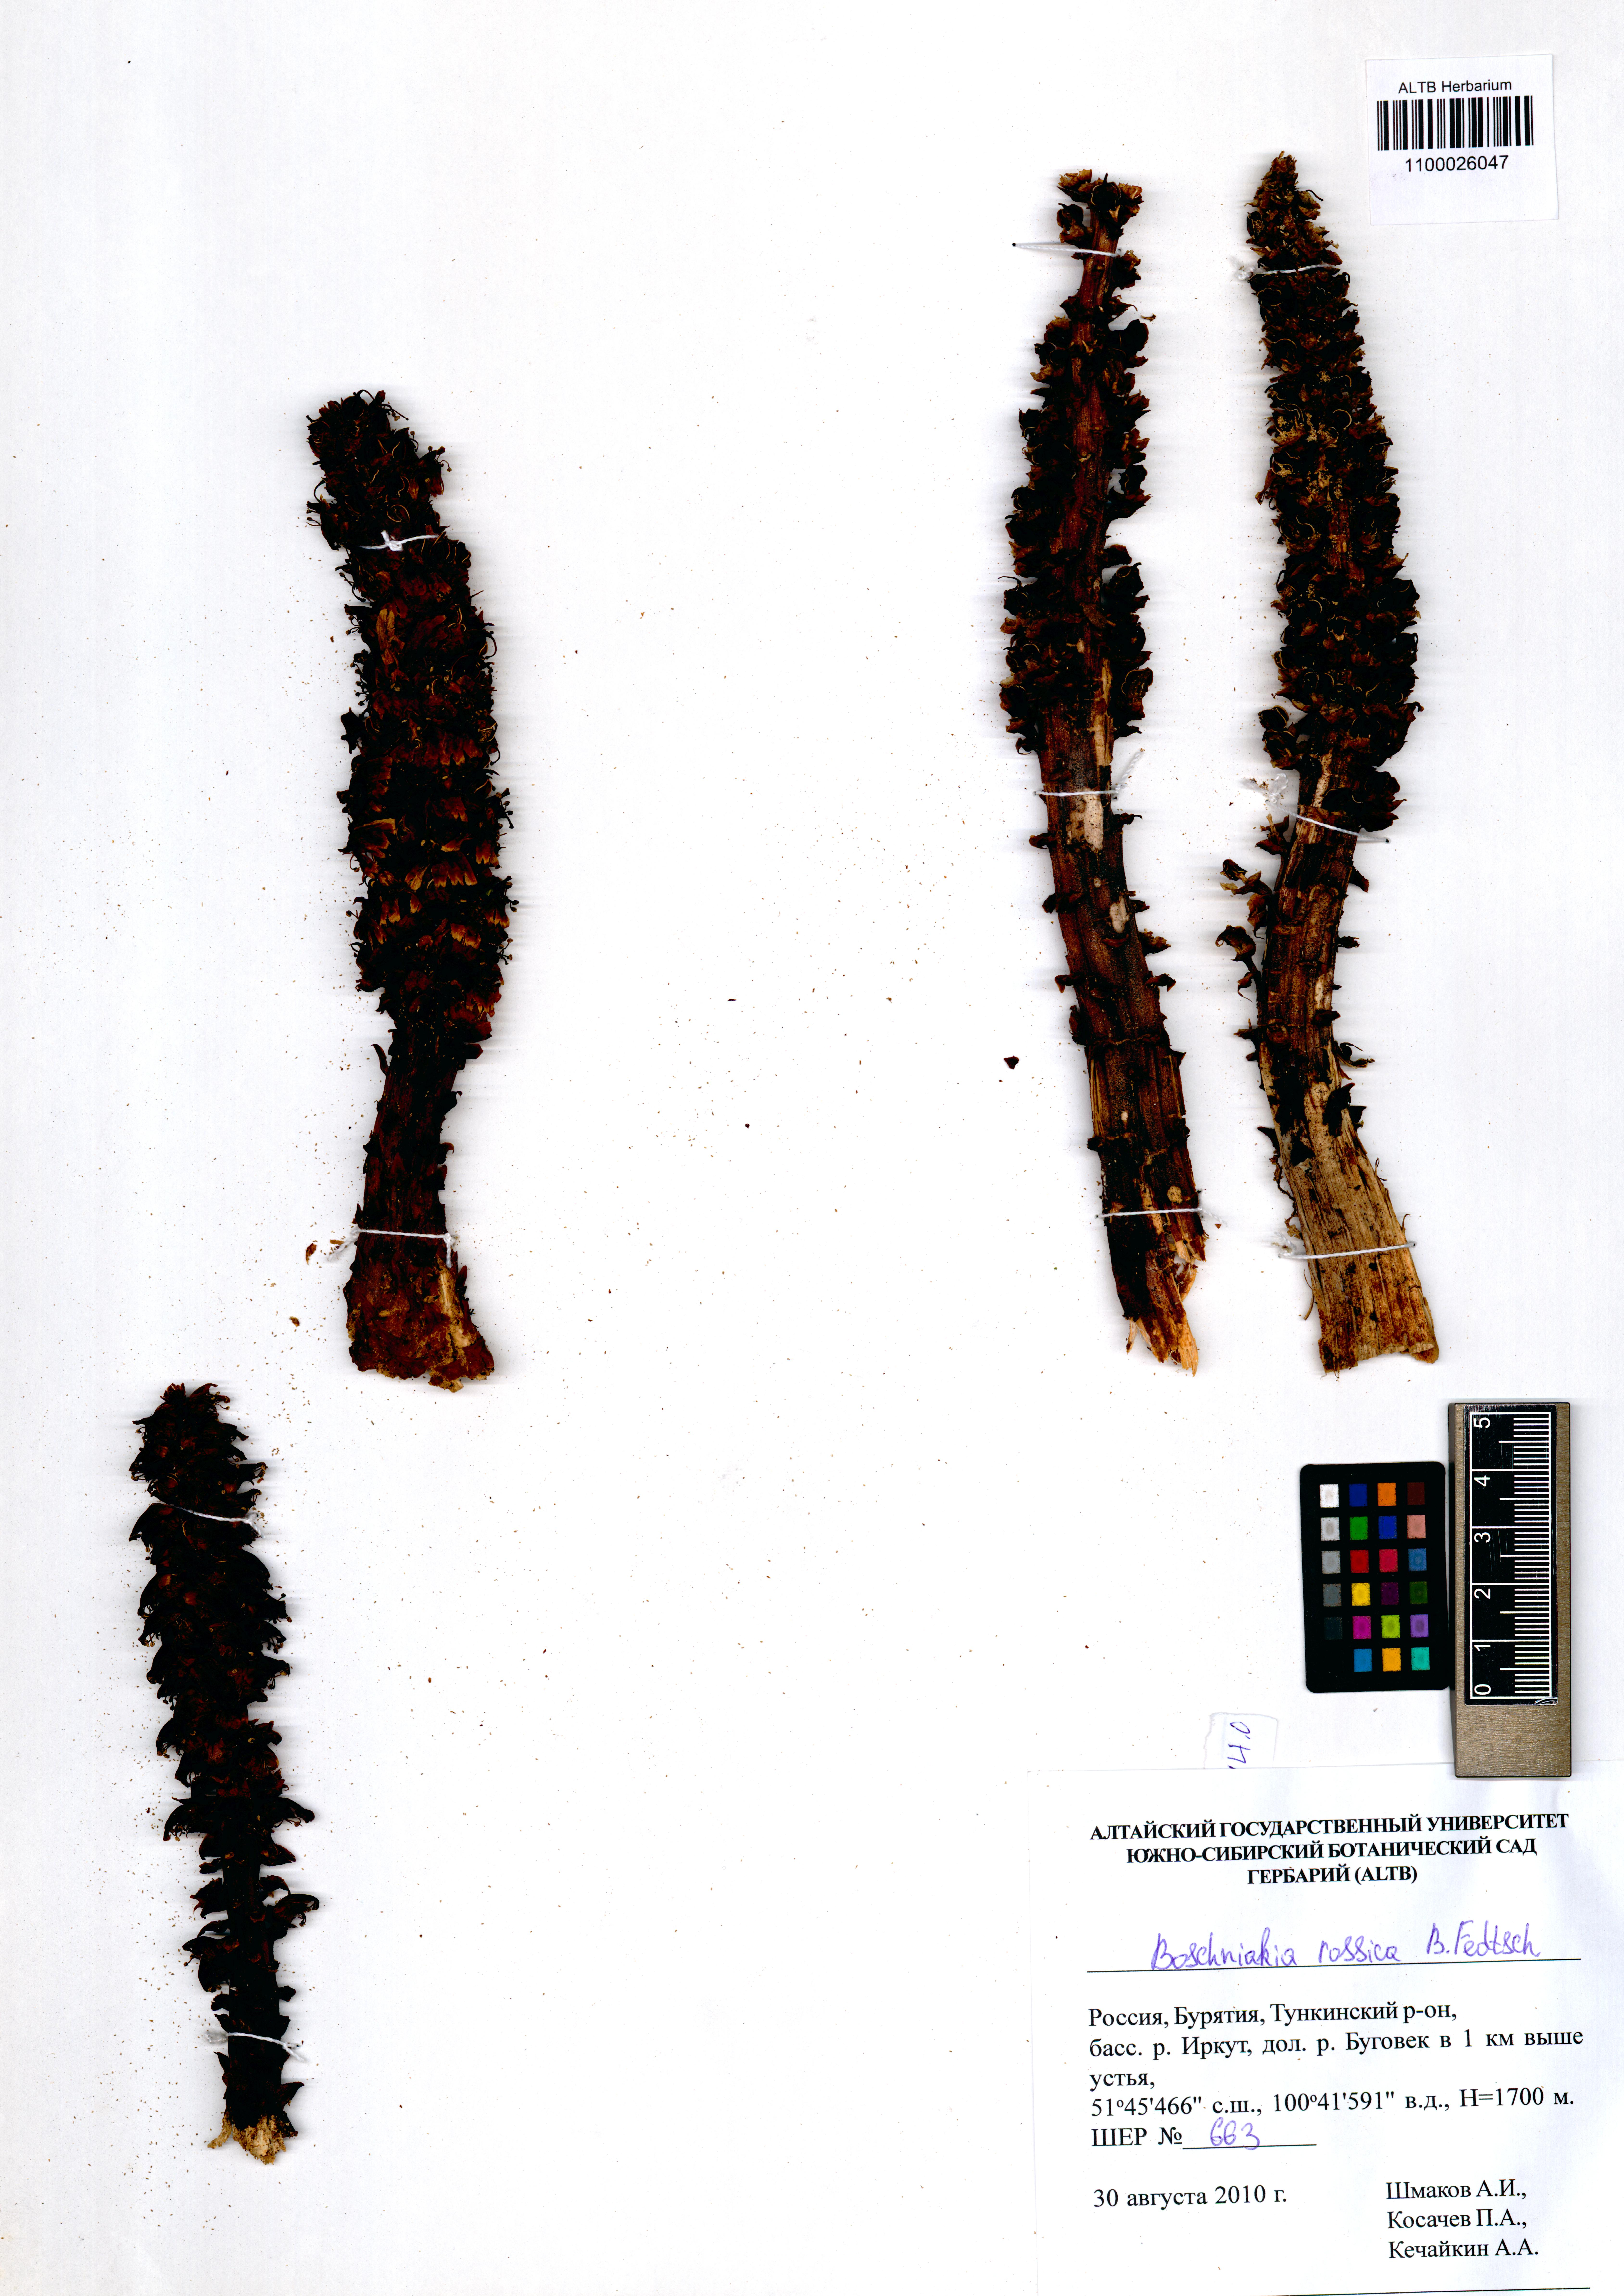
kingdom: Plantae
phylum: Tracheophyta
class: Magnoliopsida
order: Lamiales
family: Orobanchaceae
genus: Boschniakia
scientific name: Boschniakia rossica
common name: Poque
